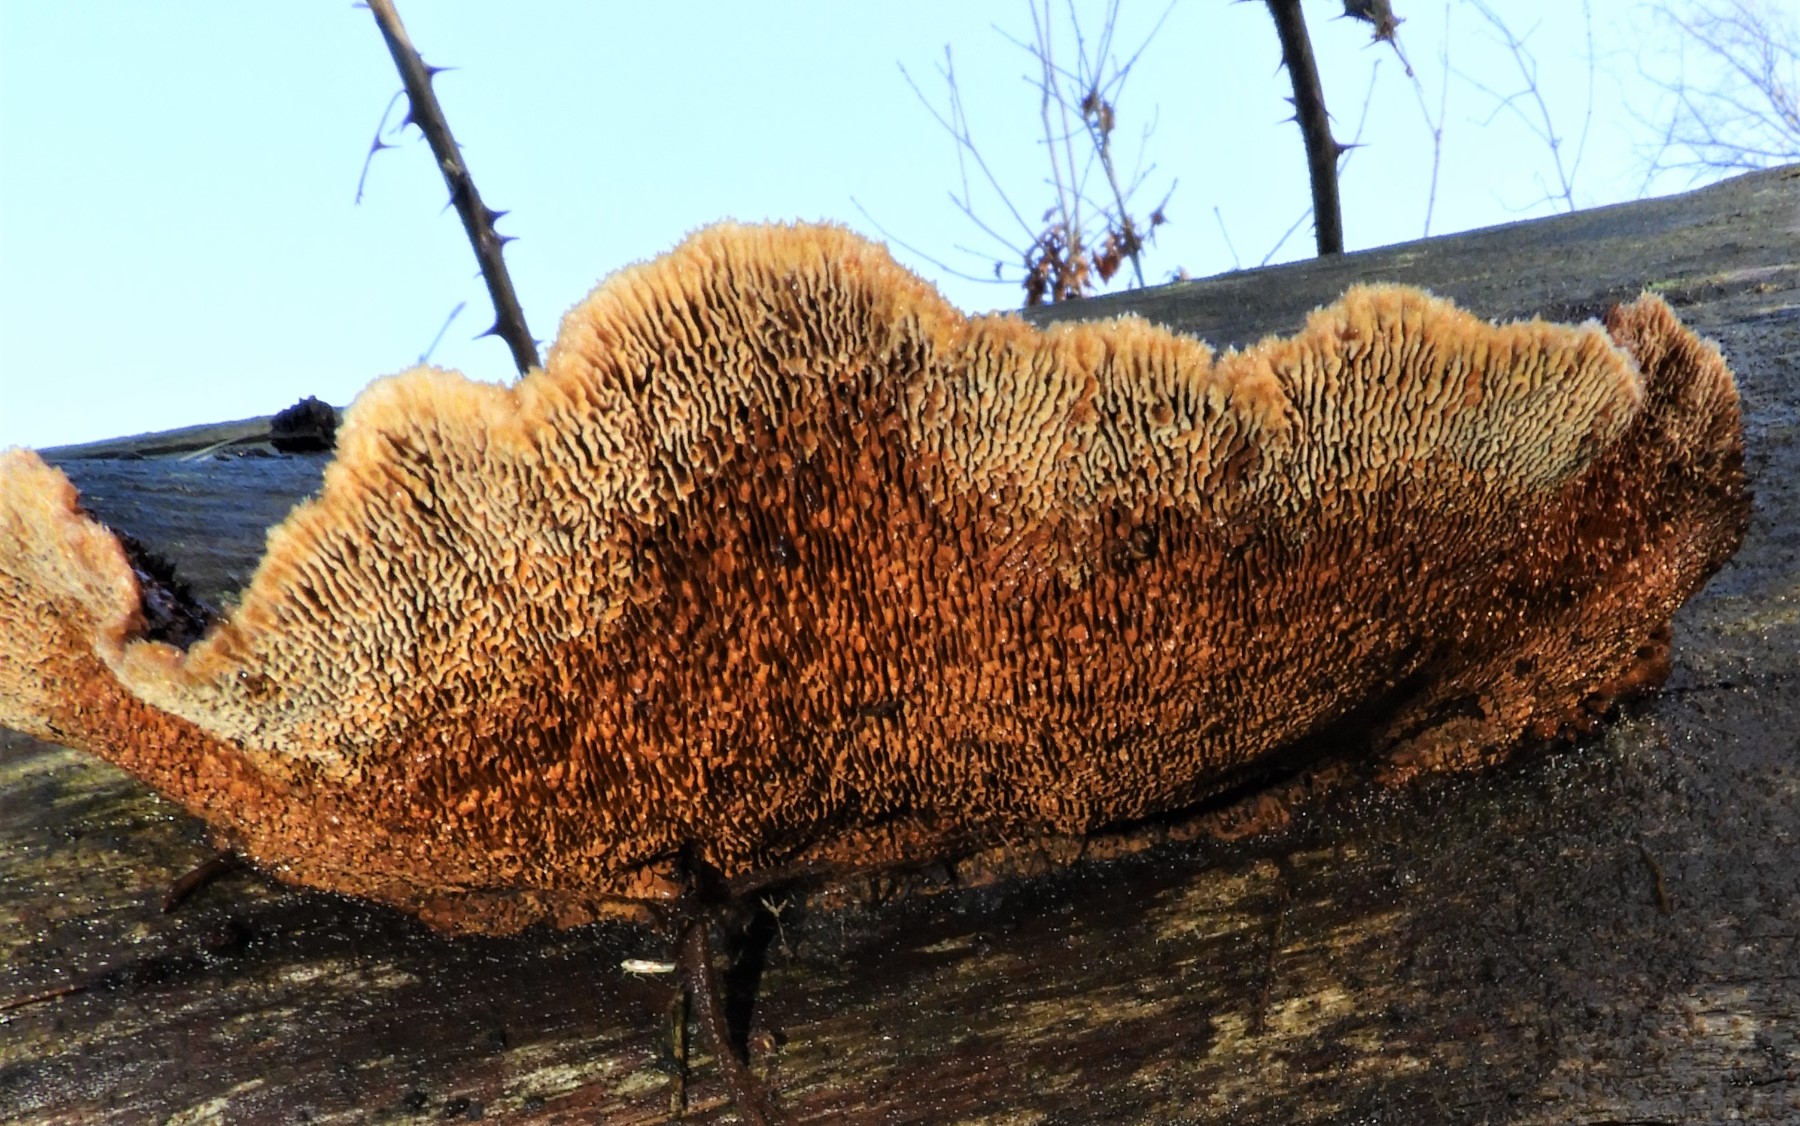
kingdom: Fungi
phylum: Basidiomycota
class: Agaricomycetes
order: Gloeophyllales
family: Gloeophyllaceae
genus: Gloeophyllum
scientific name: Gloeophyllum sepiarium
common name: fyrre-korkhat
